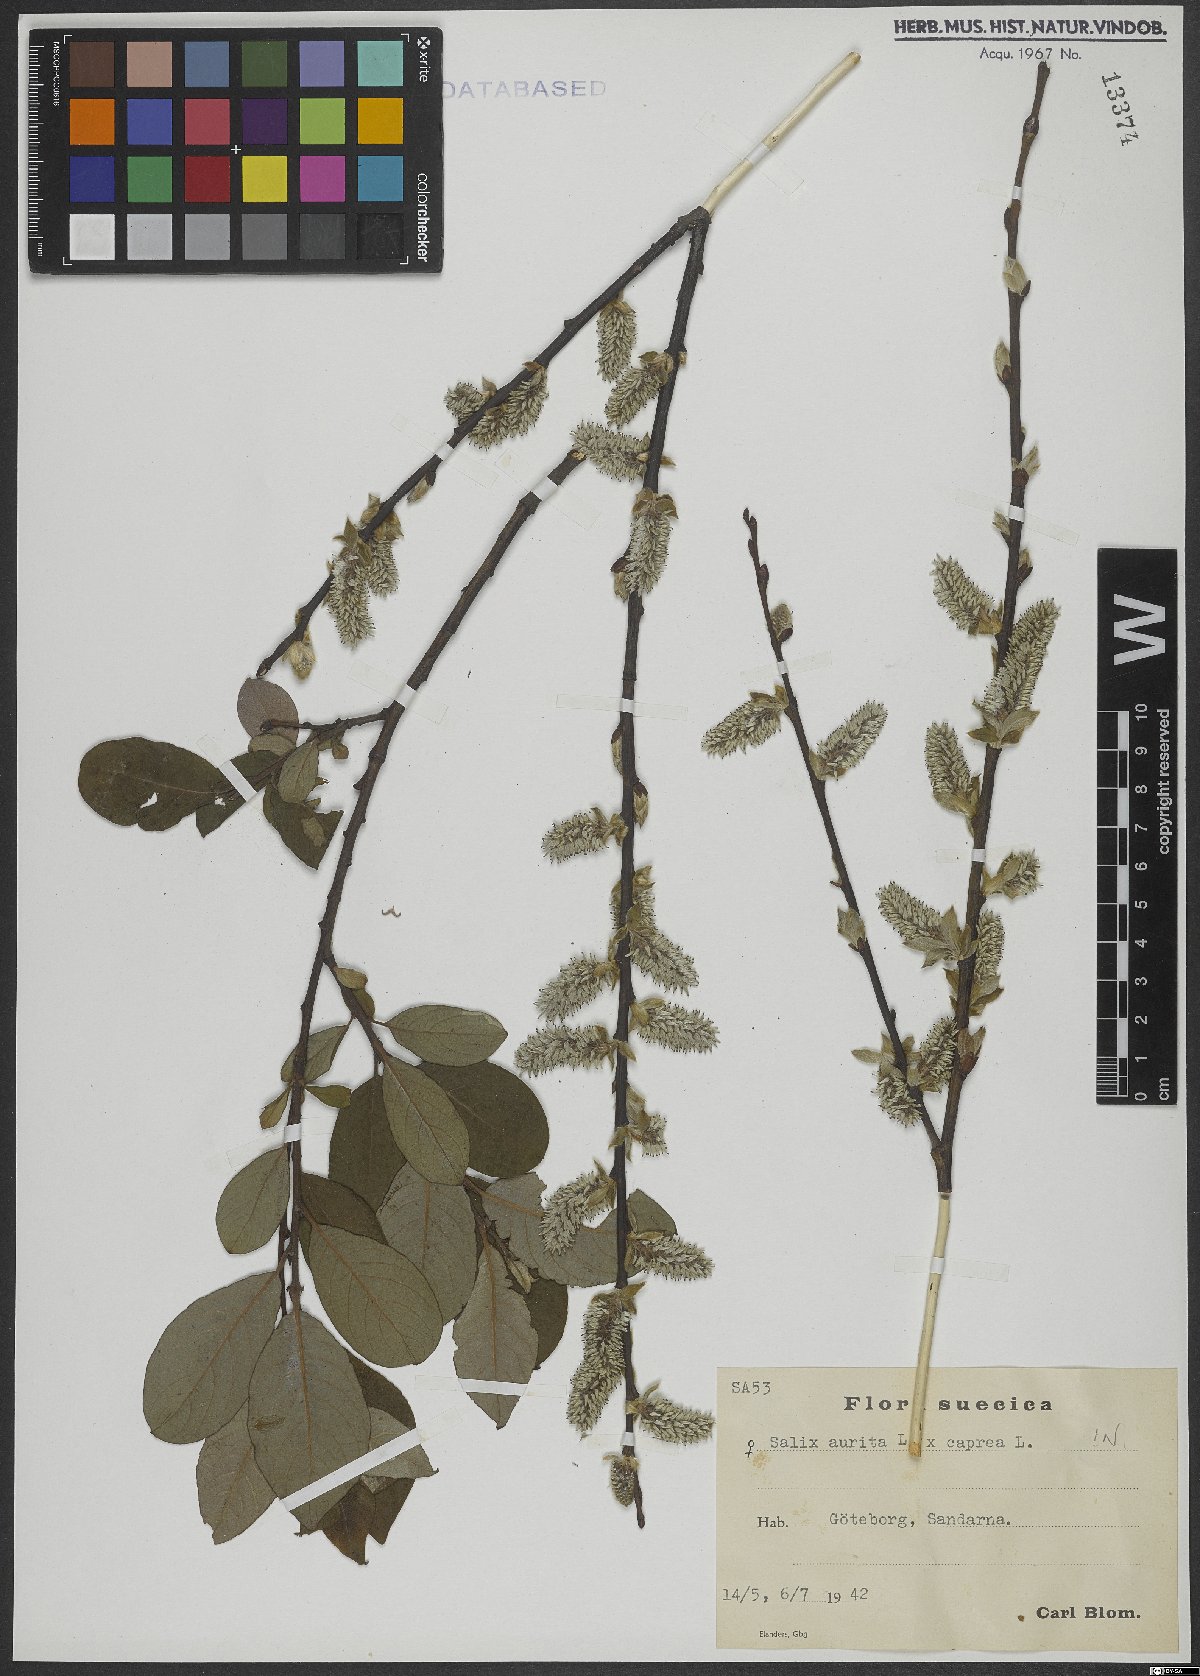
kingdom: Plantae
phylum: Tracheophyta
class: Magnoliopsida
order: Malpighiales
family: Salicaceae
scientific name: Salicaceae
